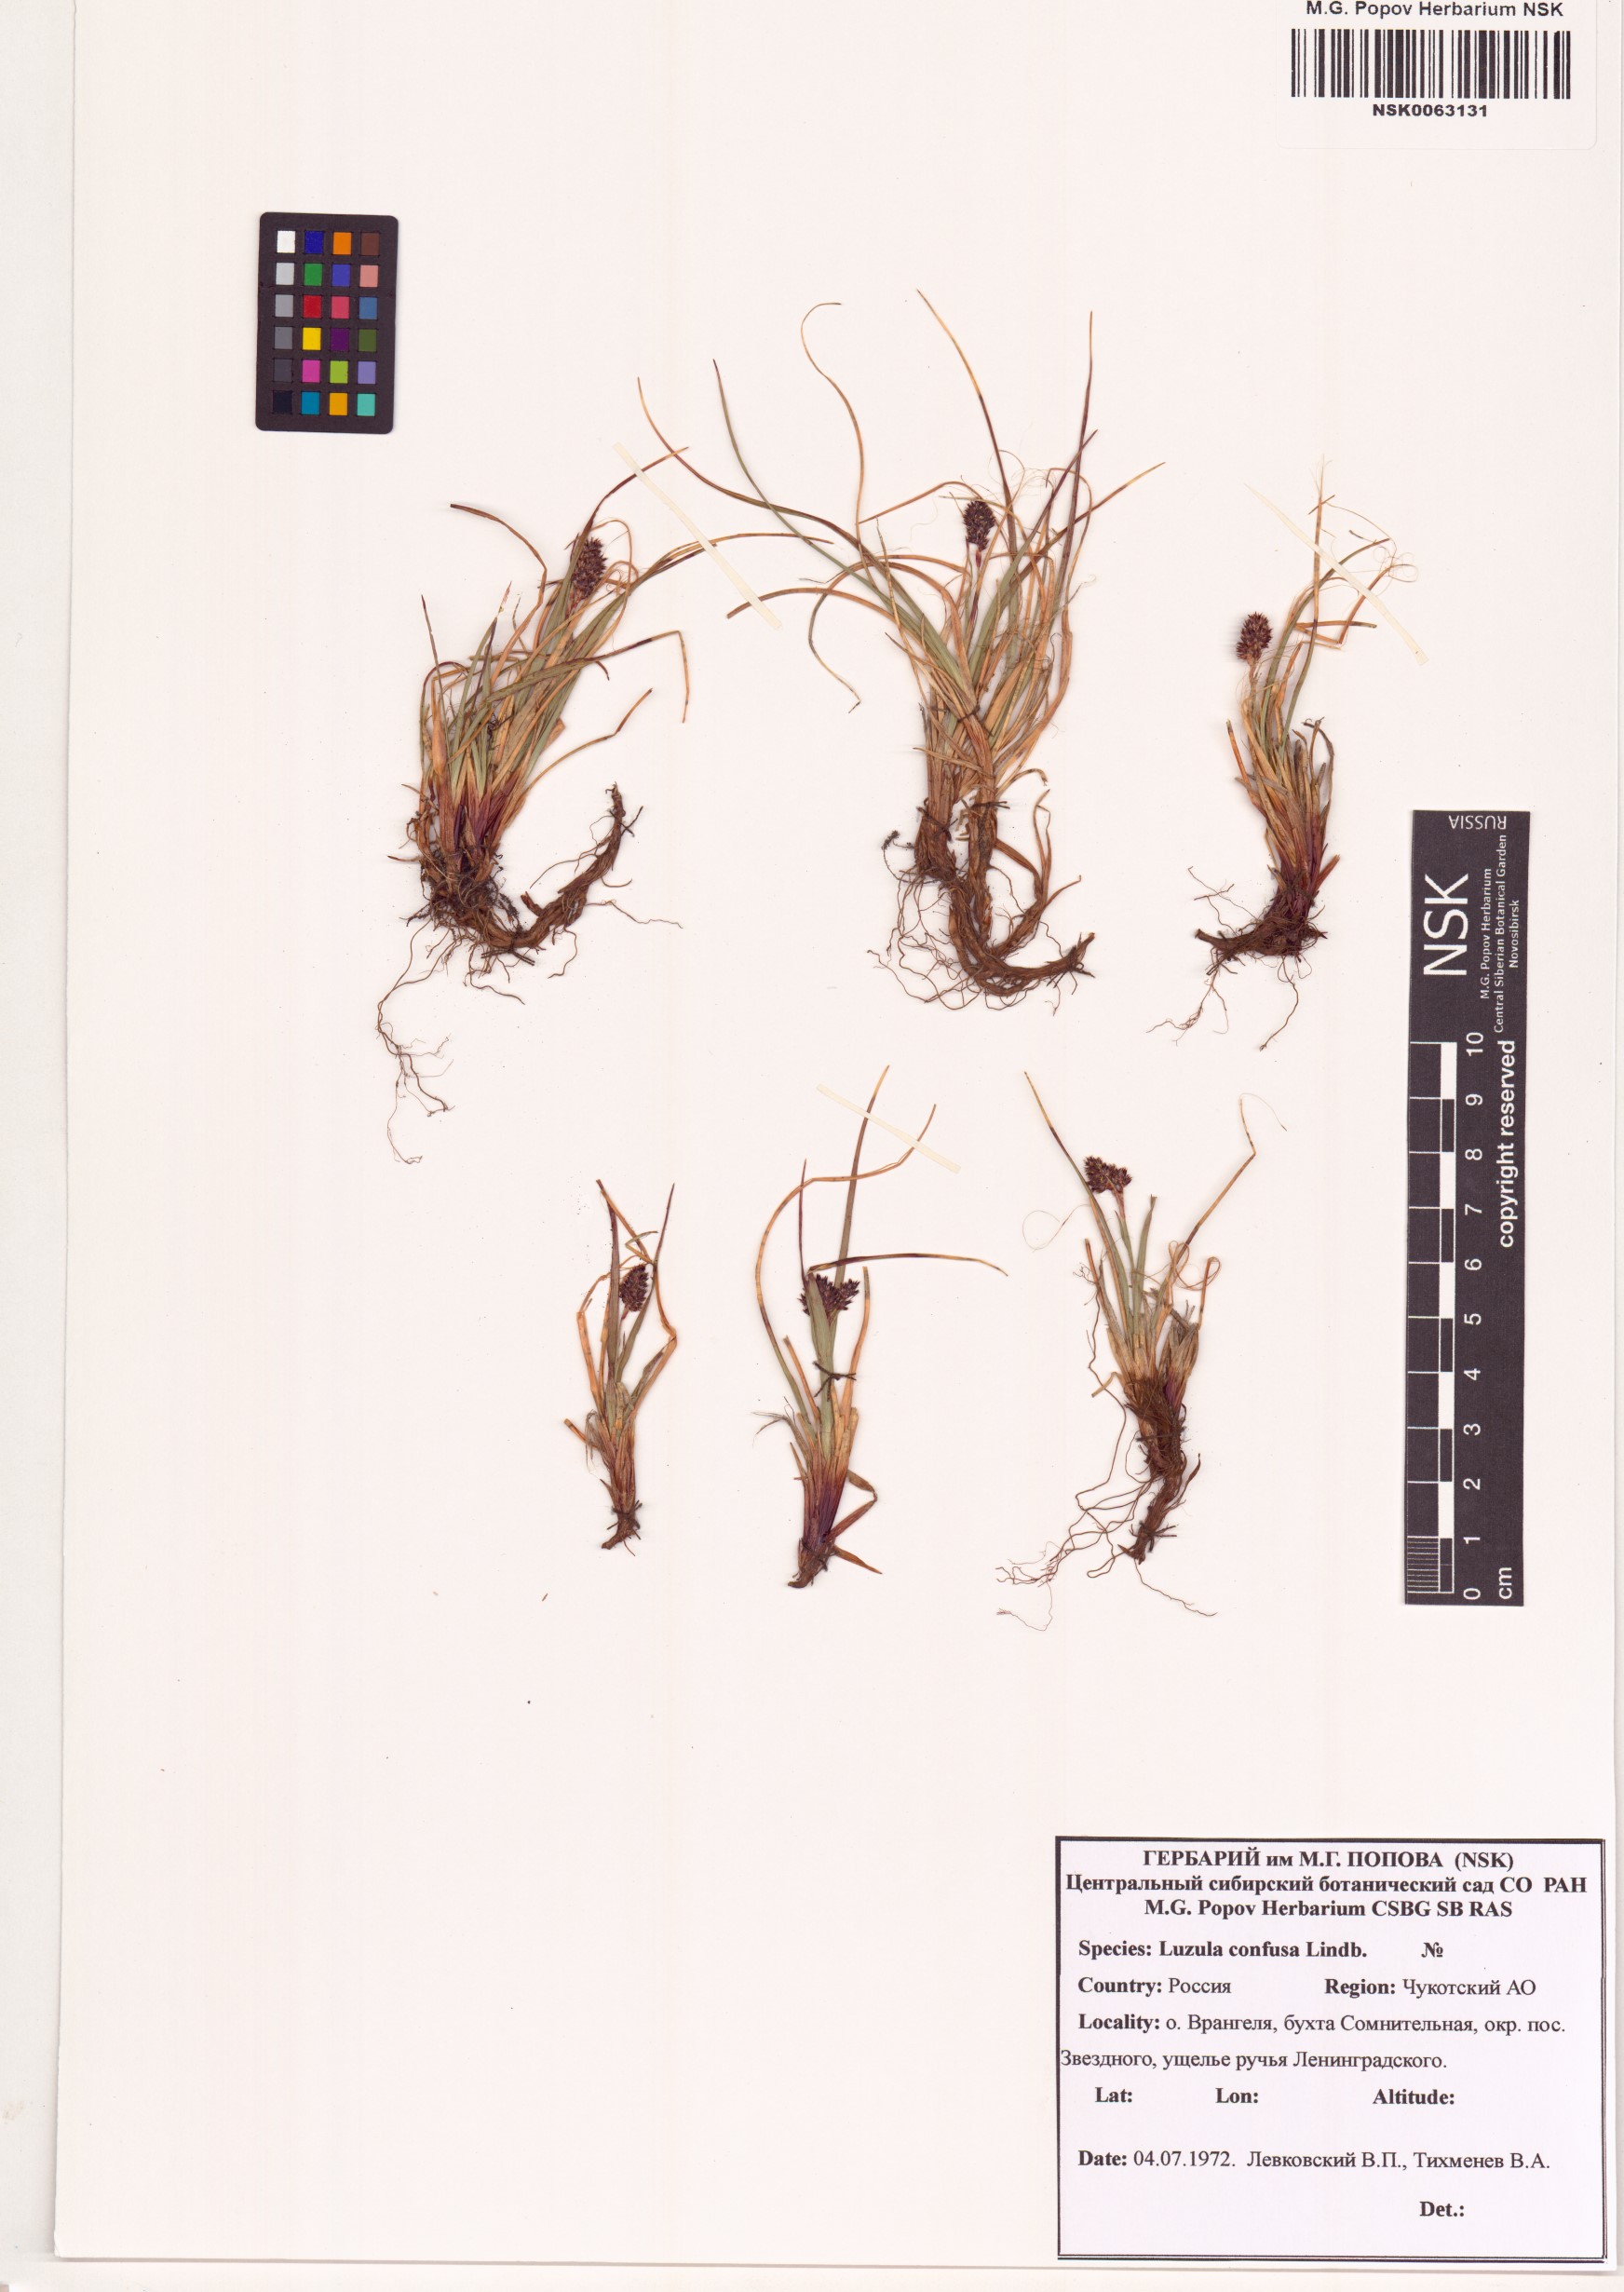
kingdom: Plantae
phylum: Tracheophyta
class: Liliopsida
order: Poales
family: Juncaceae
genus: Luzula
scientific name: Luzula confusa
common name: Northern wood rush
